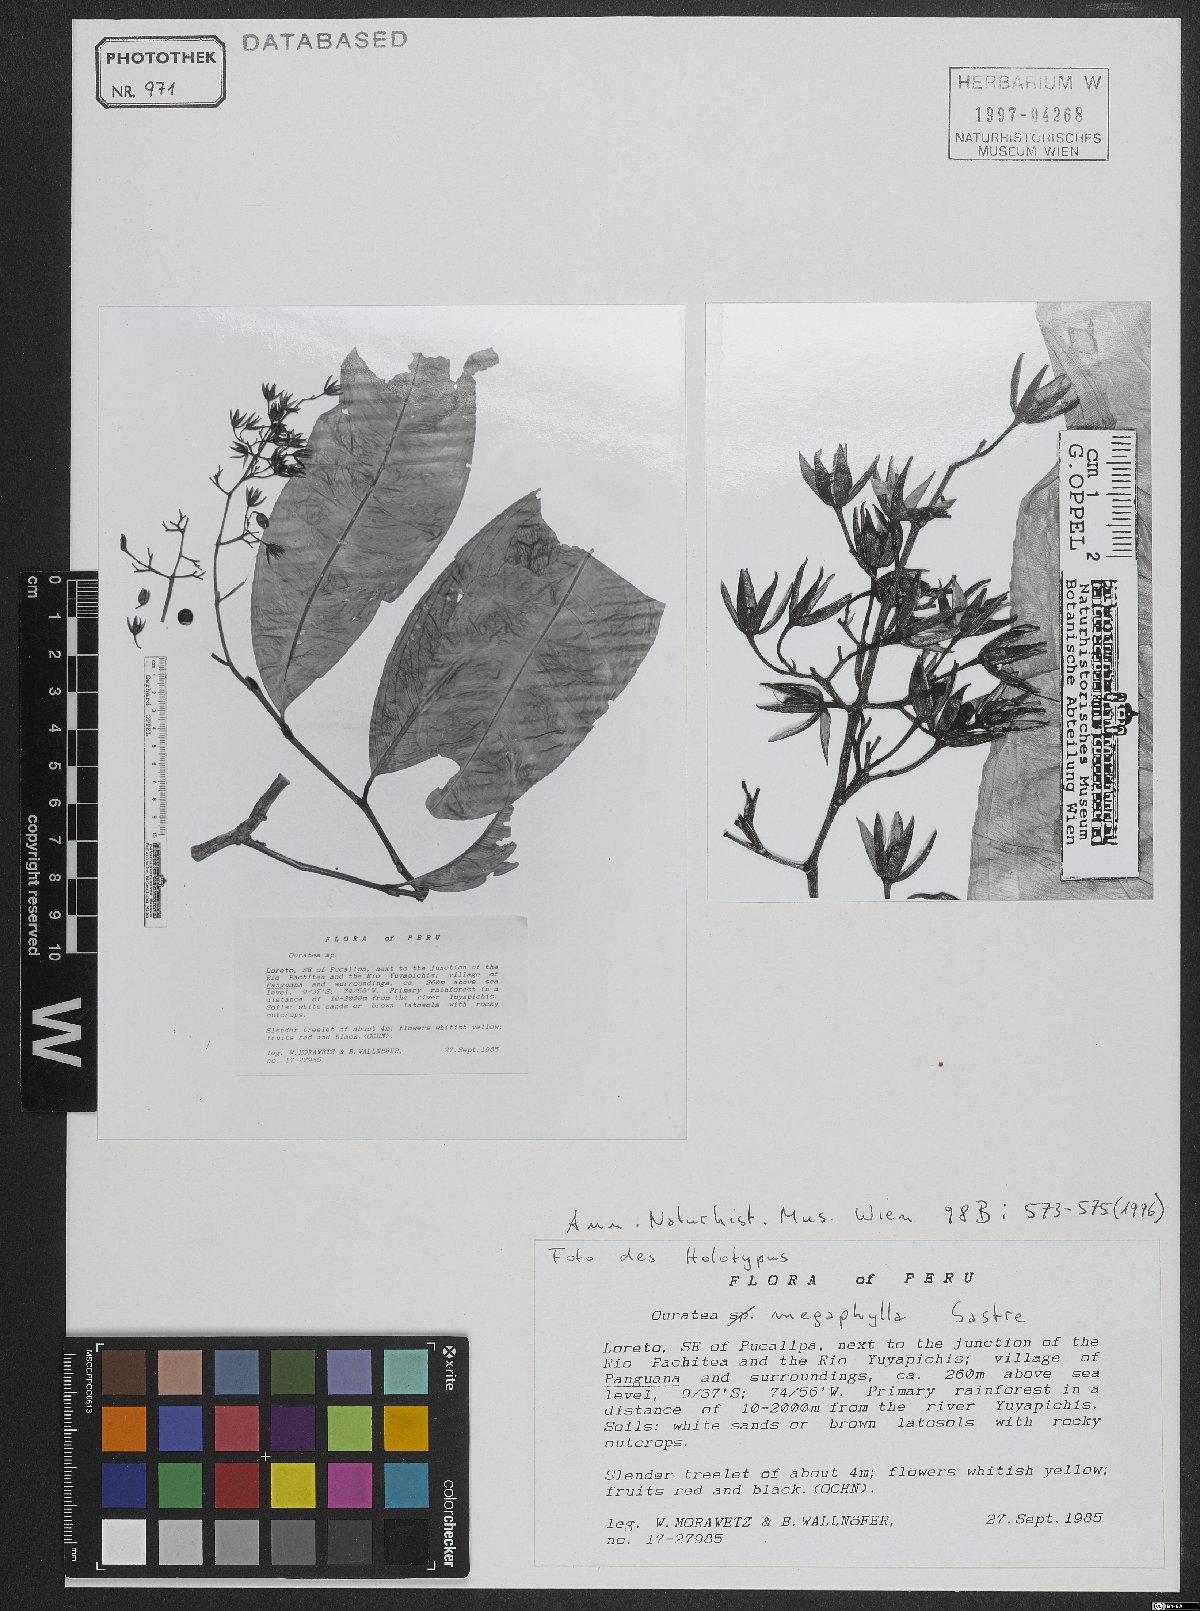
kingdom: Plantae
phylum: Tracheophyta
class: Magnoliopsida
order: Malpighiales
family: Ochnaceae
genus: Ouratea
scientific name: Ouratea megaphylla
